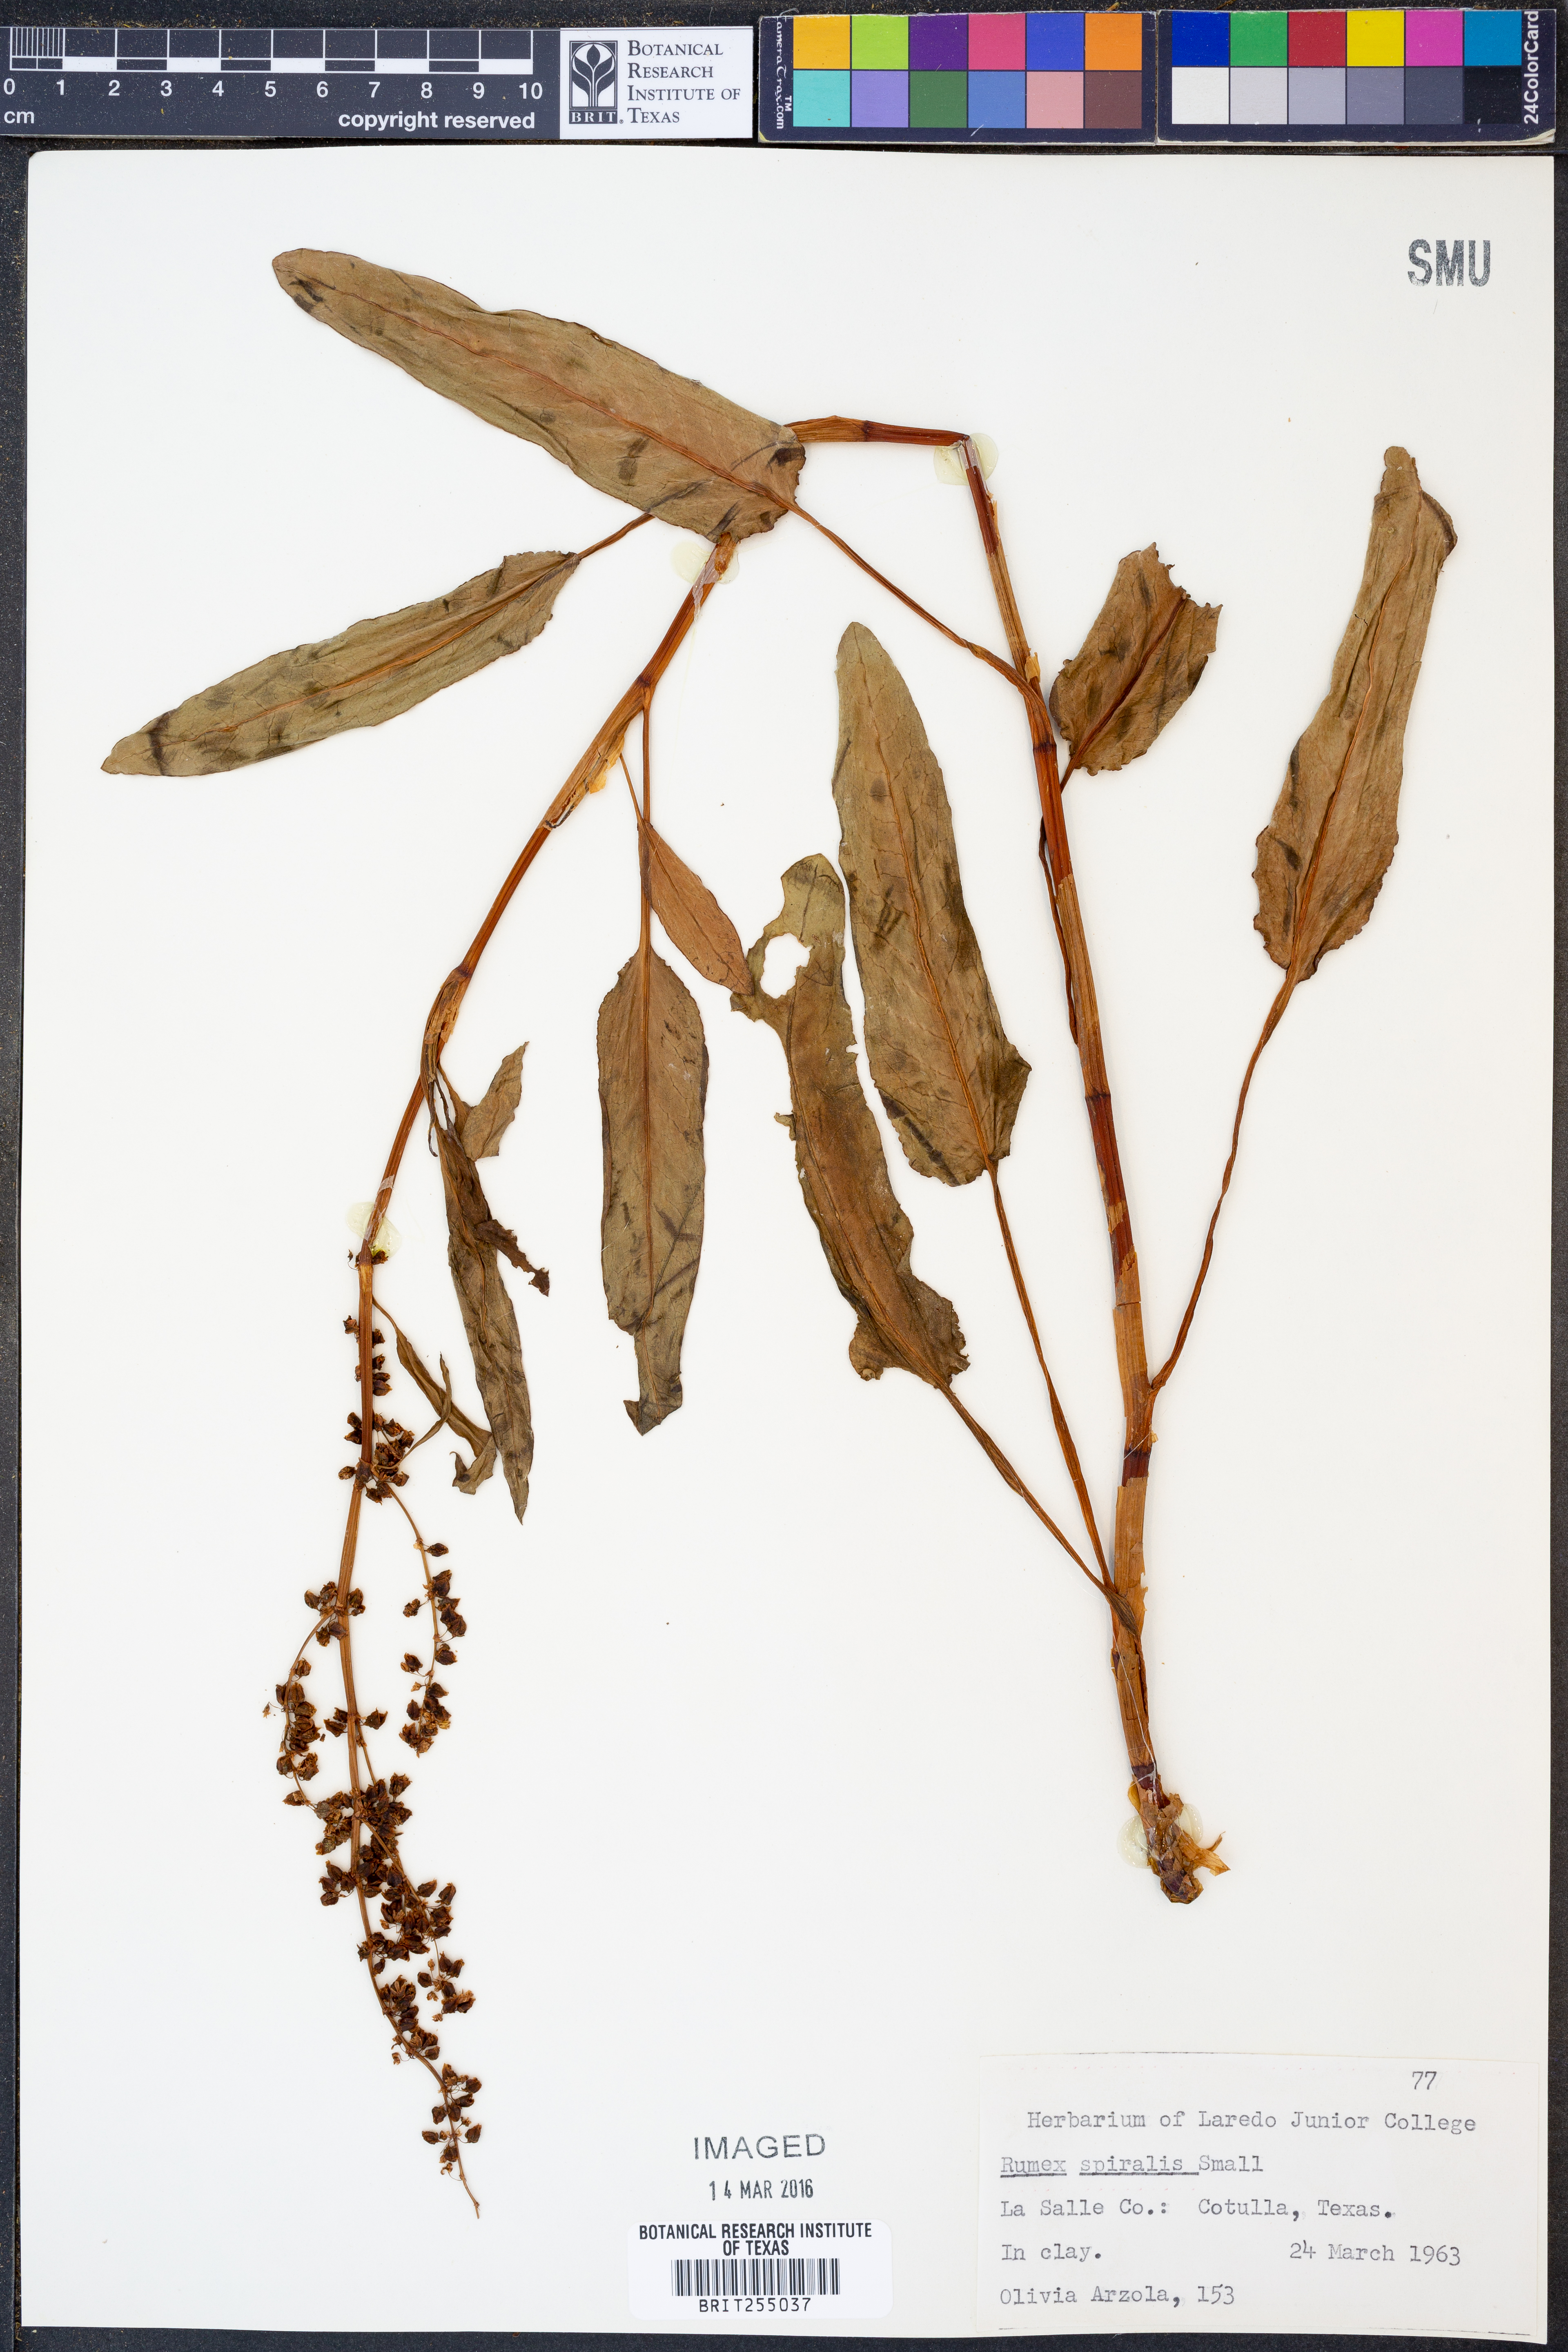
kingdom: Plantae
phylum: Tracheophyta
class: Magnoliopsida
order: Caryophyllales
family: Polygonaceae
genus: Rumex
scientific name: Rumex spiralis
